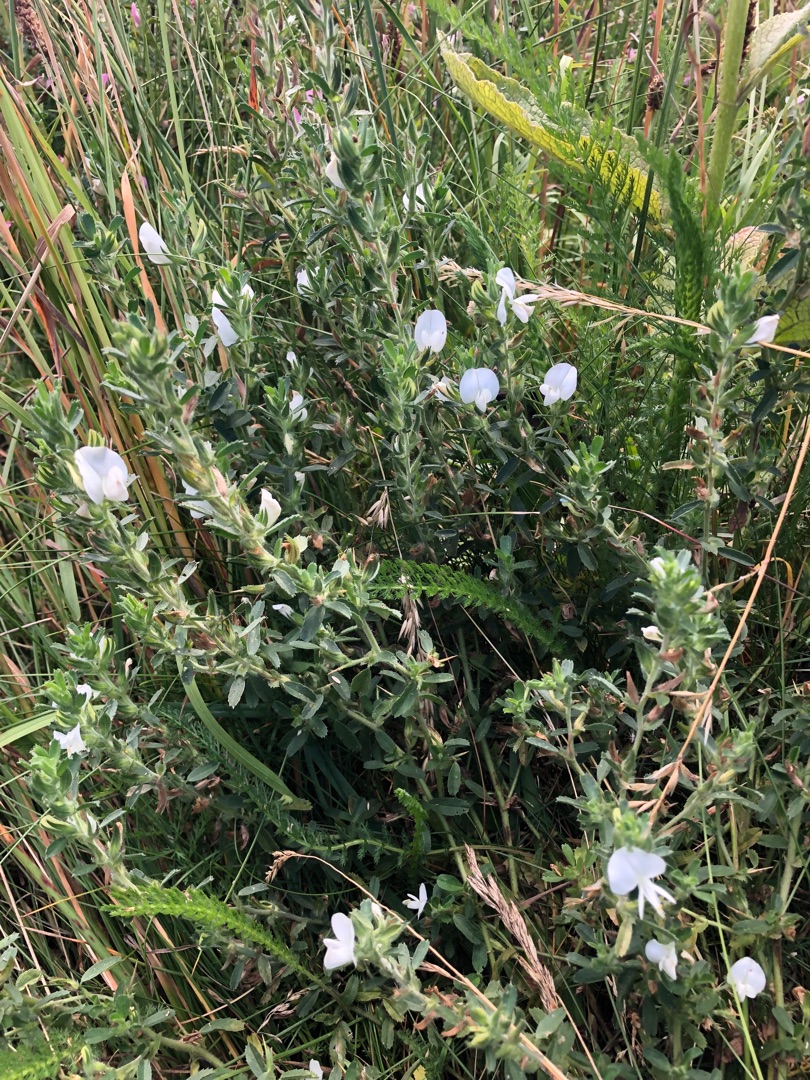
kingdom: Plantae
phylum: Tracheophyta
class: Magnoliopsida
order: Fabales
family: Fabaceae
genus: Ononis
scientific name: Ononis spinosa
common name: Mark-krageklo
